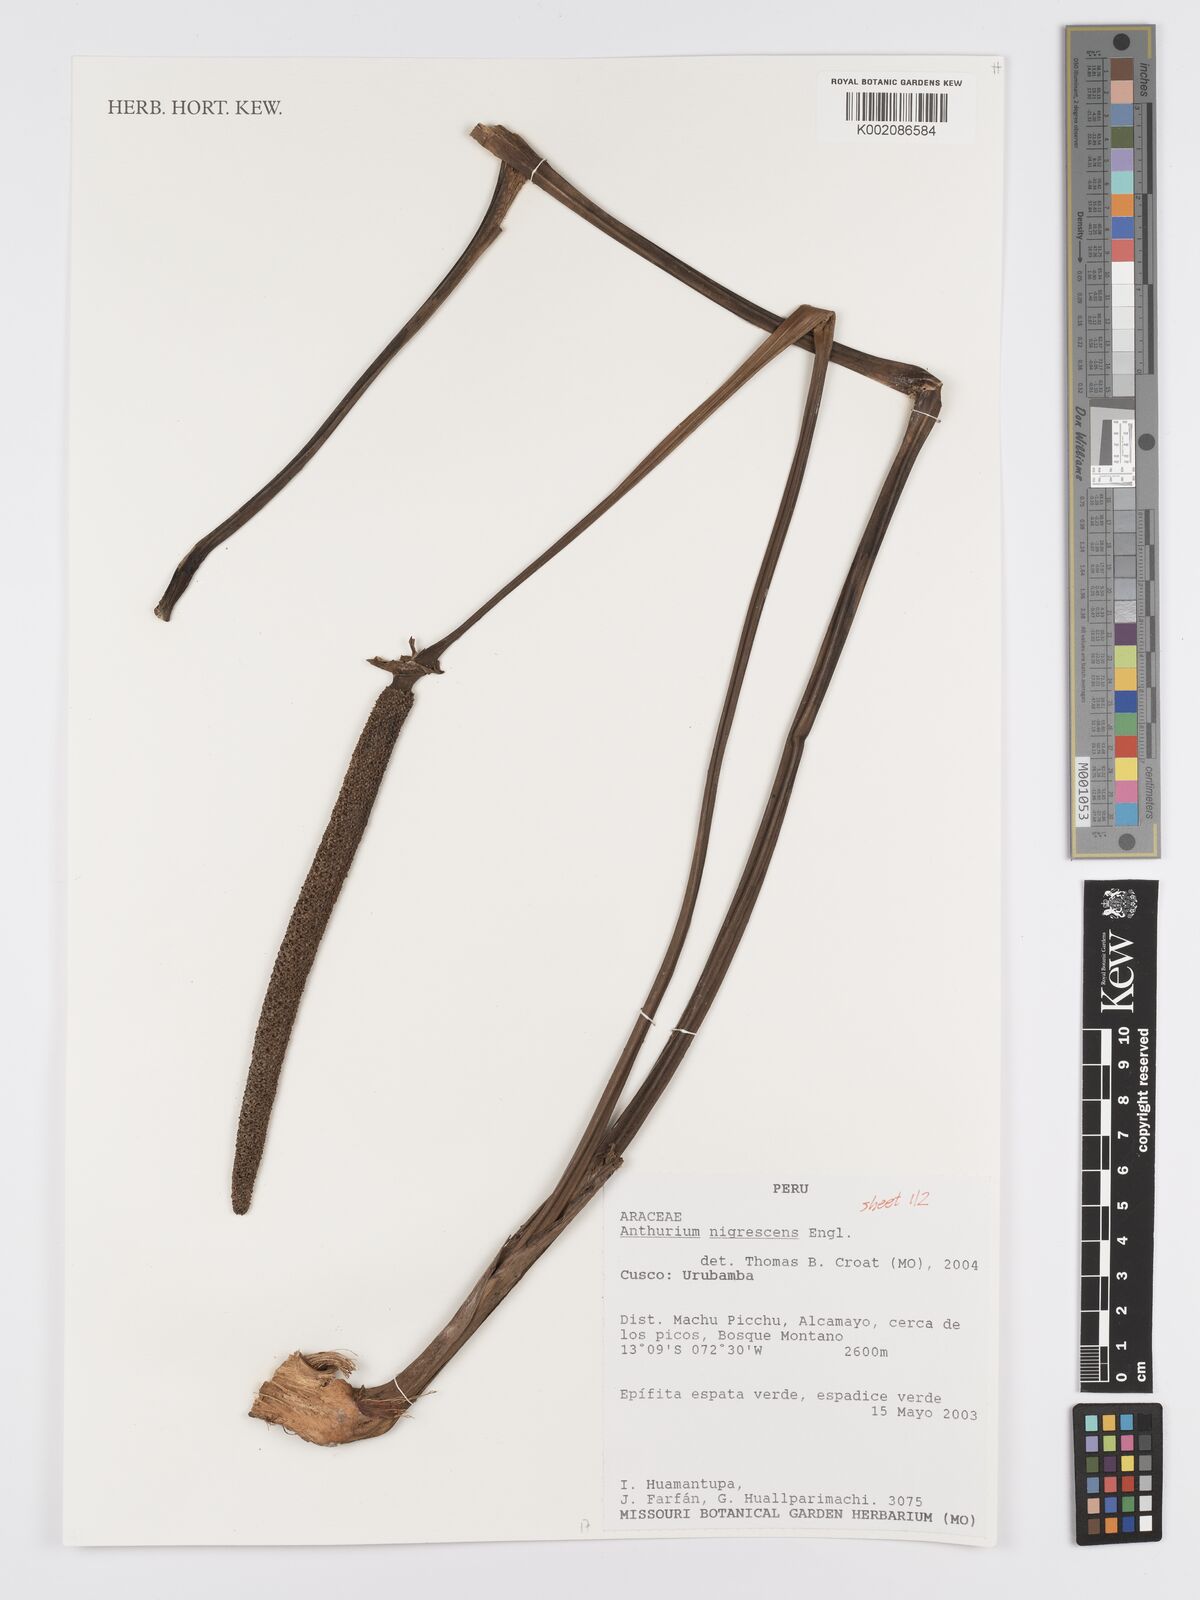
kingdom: Plantae
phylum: Tracheophyta
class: Liliopsida
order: Alismatales
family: Araceae
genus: Anthurium
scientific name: Anthurium nigrescens
